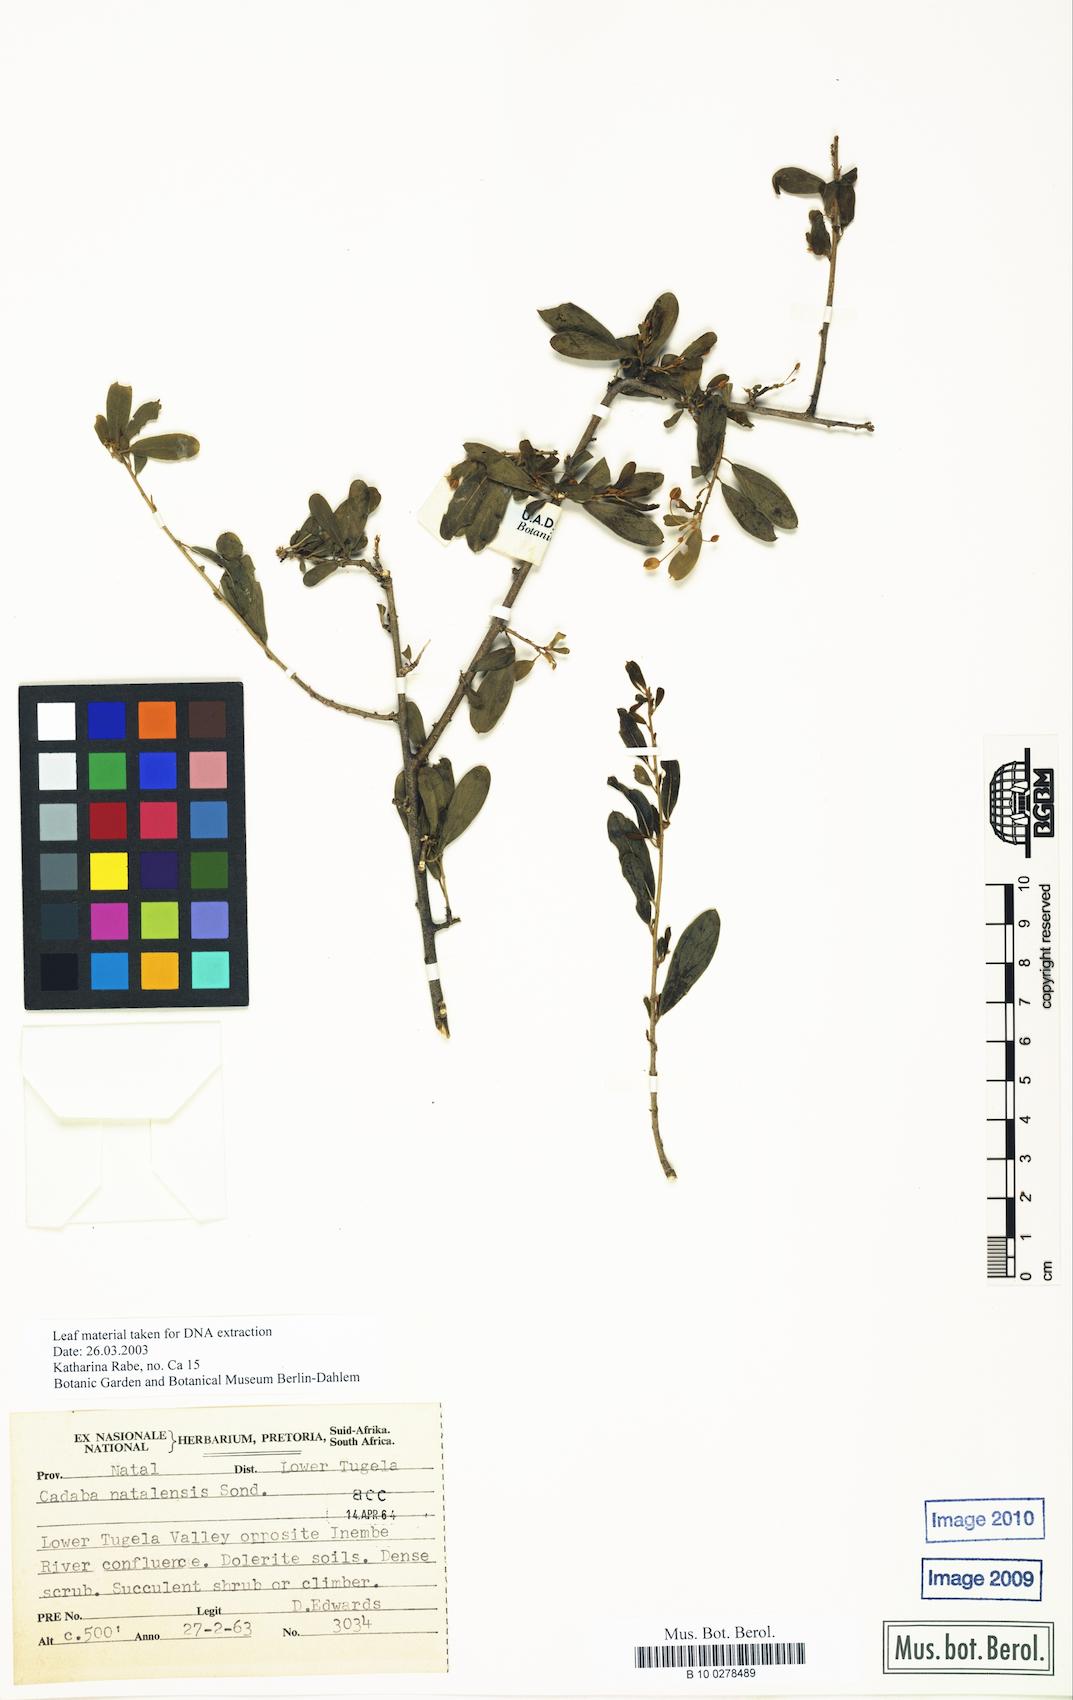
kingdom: Plantae
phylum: Tracheophyta
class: Magnoliopsida
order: Brassicales
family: Capparaceae
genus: Cadaba
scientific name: Cadaba natalensis
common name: Natal worm bush
